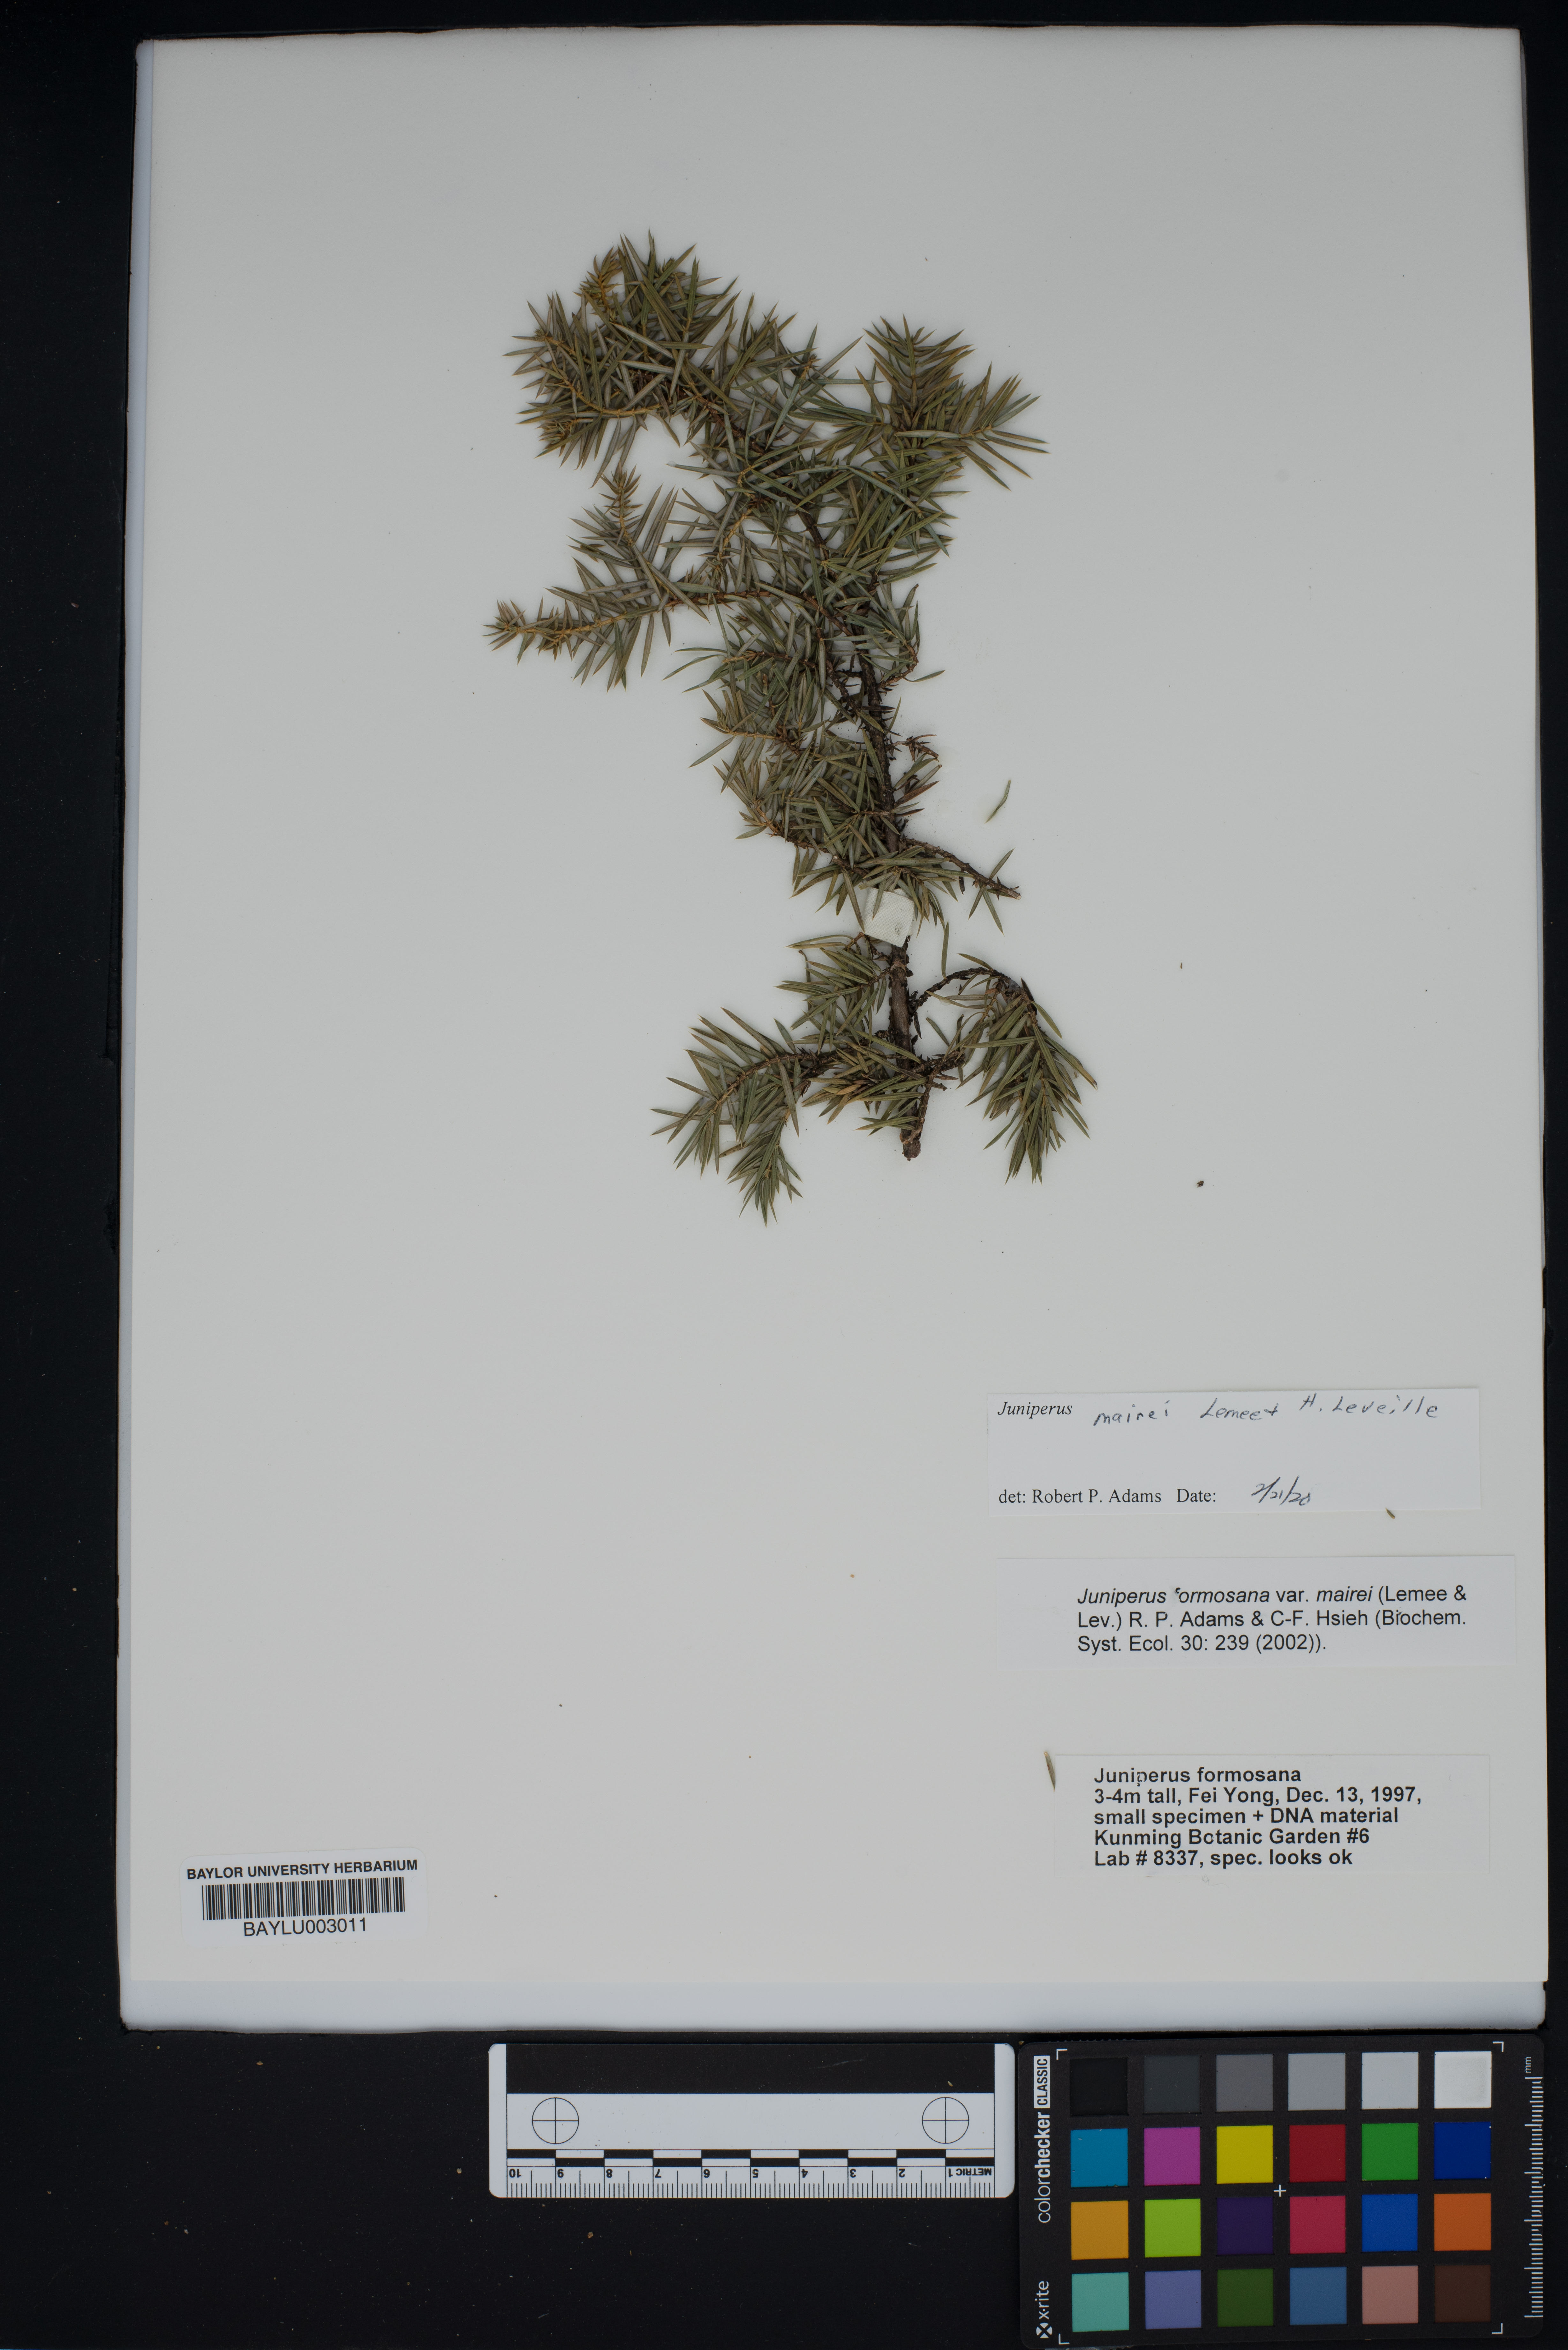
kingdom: Plantae
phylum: Tracheophyta
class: Pinopsida
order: Pinales
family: Cupressaceae
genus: Juniperus
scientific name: Juniperus formosana
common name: Formosan juniper
